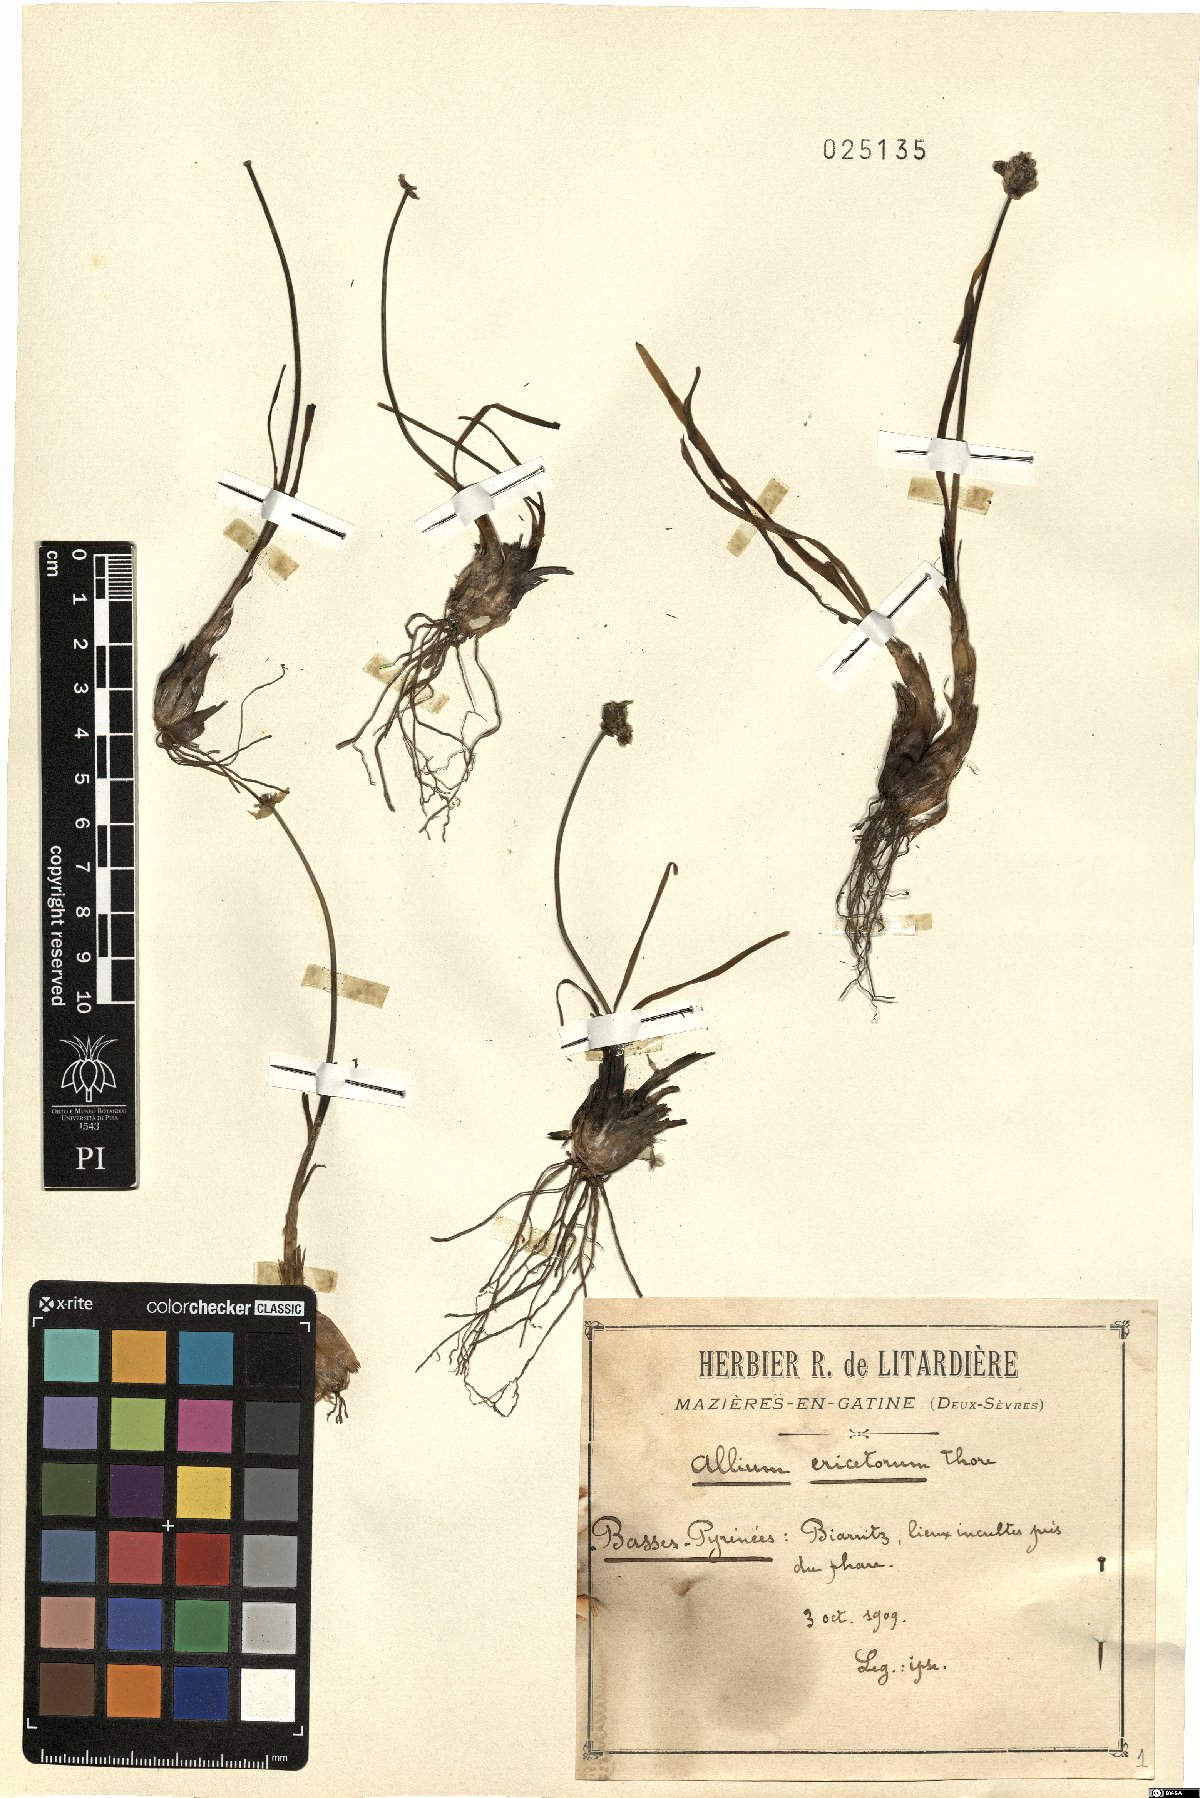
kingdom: Plantae
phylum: Tracheophyta
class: Liliopsida
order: Asparagales
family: Amaryllidaceae
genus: Allium
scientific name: Allium ericetorum
